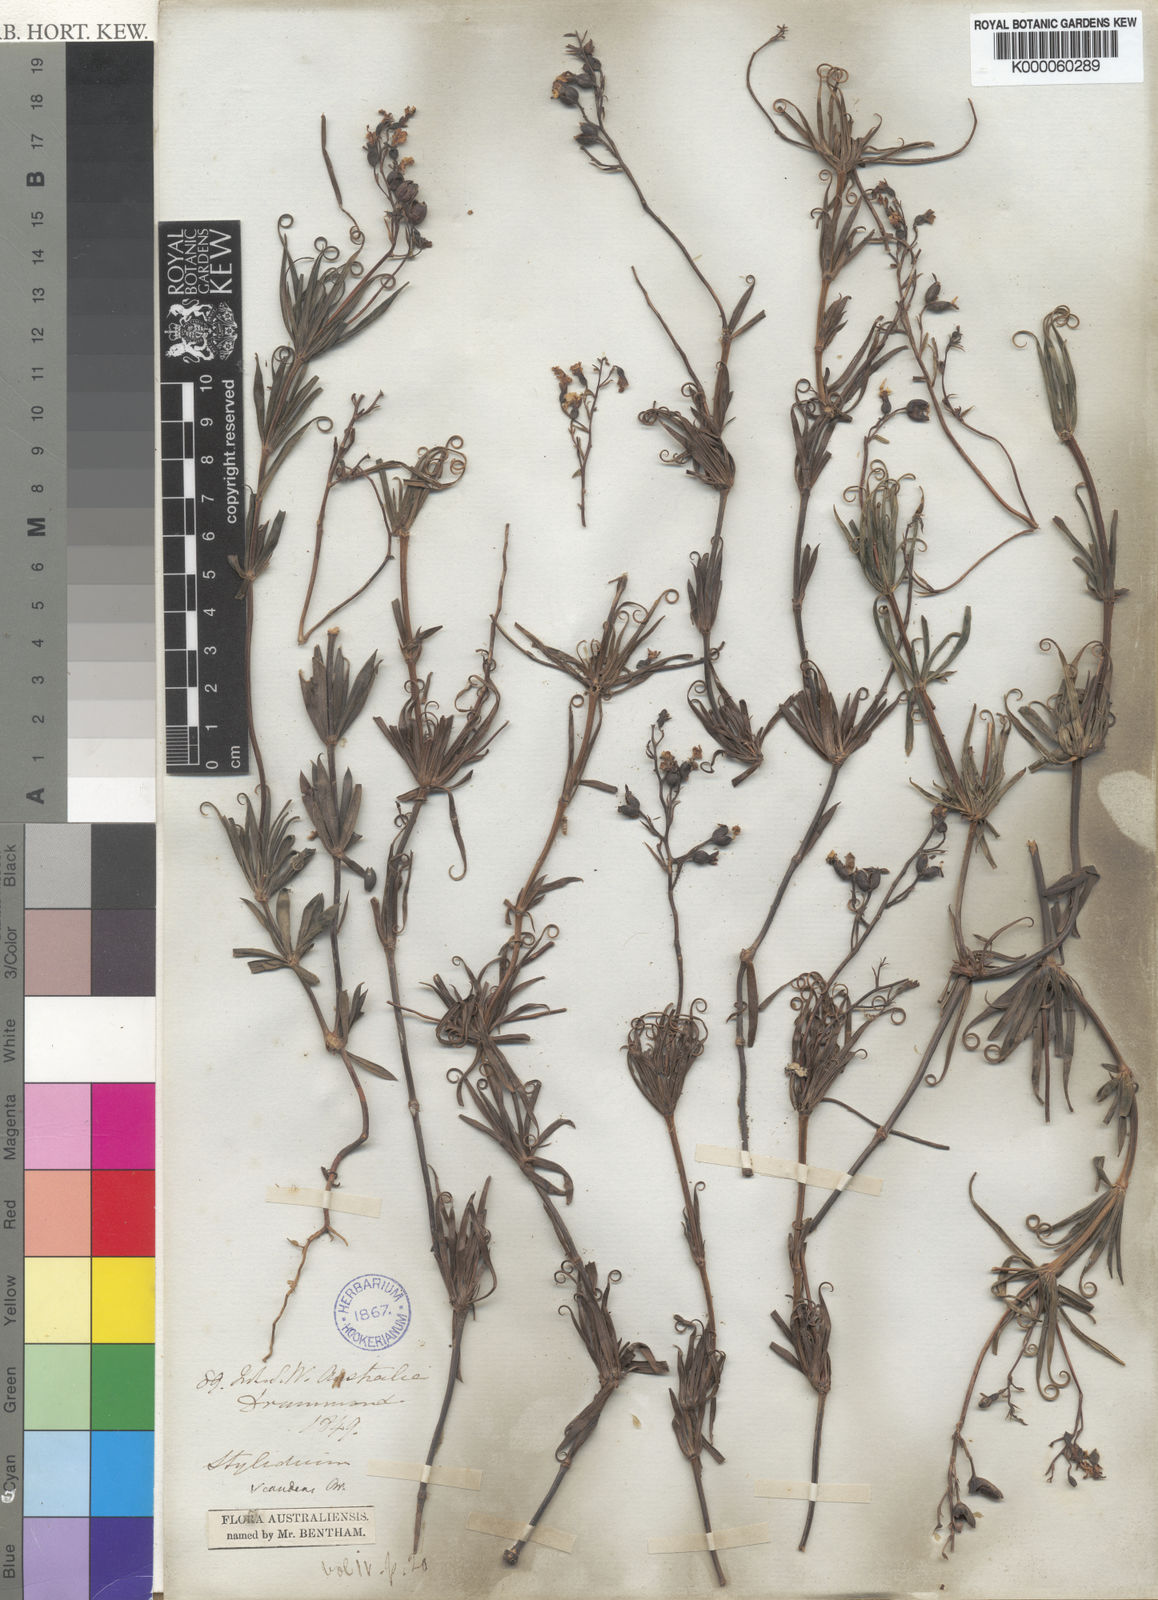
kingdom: Plantae
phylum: Tracheophyta
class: Magnoliopsida
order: Asterales
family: Stylidiaceae
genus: Stylidium
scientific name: Stylidium scandens
